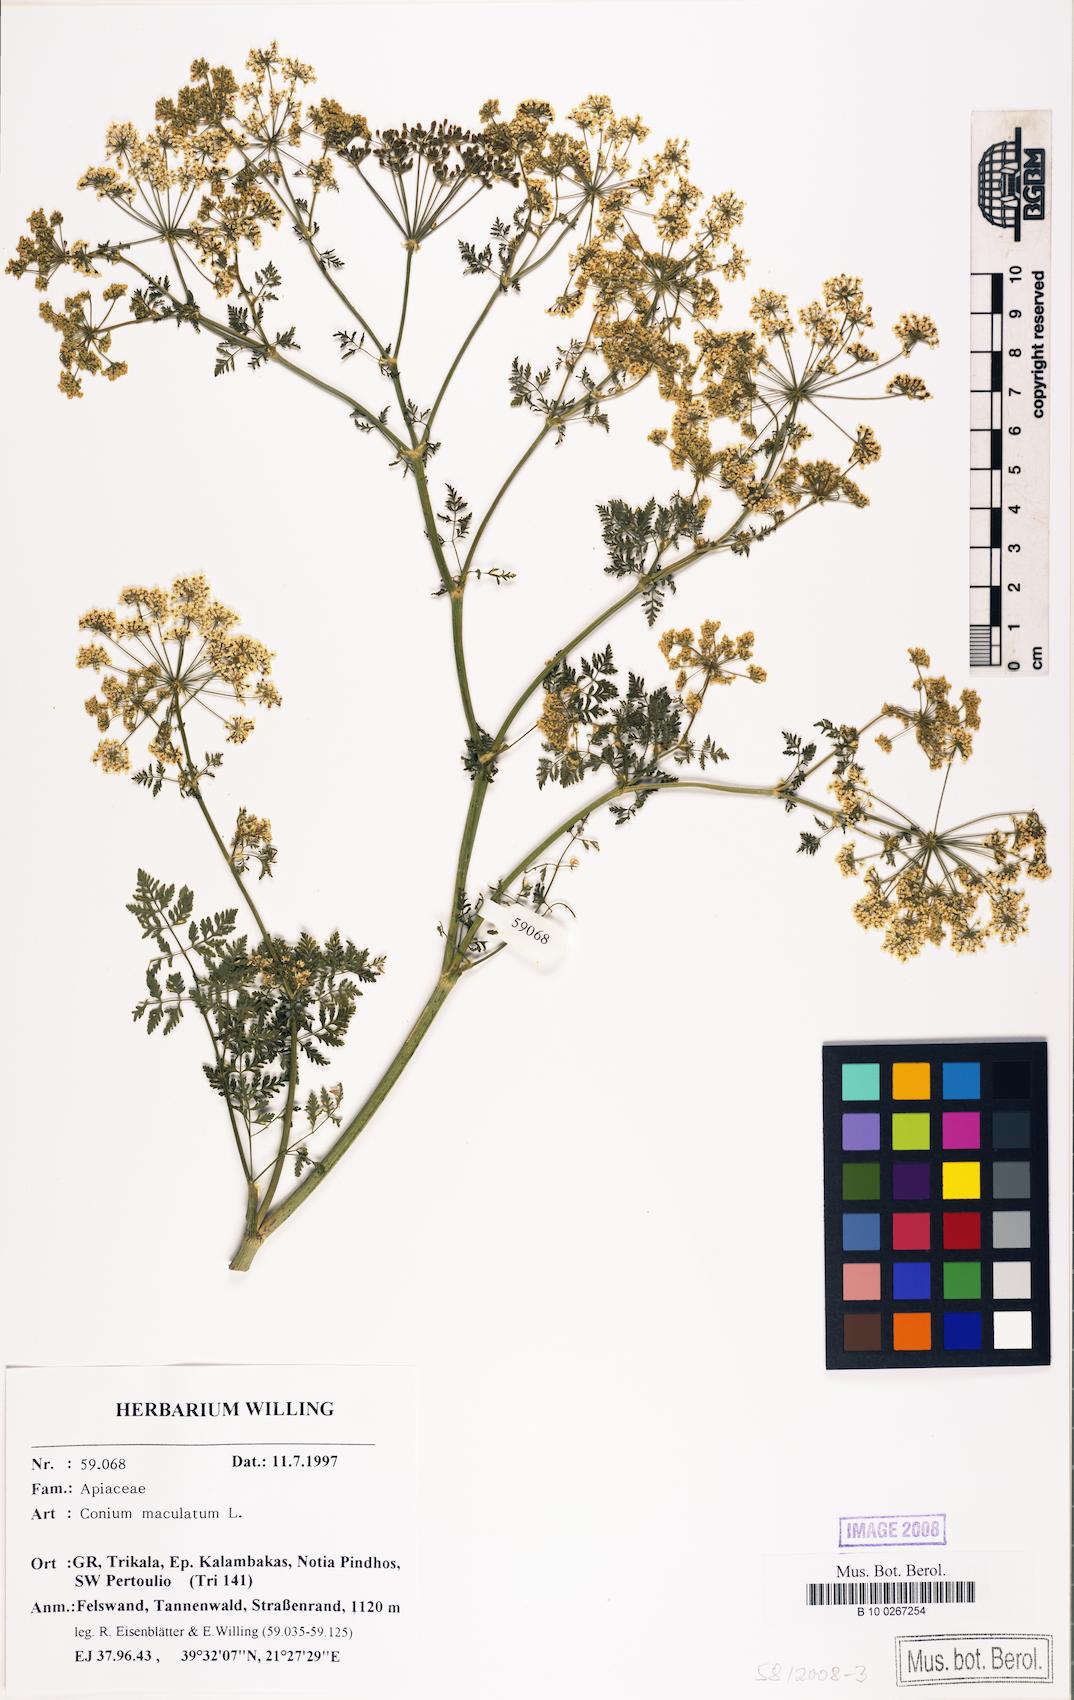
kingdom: Plantae
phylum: Tracheophyta
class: Magnoliopsida
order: Apiales
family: Apiaceae
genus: Conium
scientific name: Conium maculatum
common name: Hemlock
